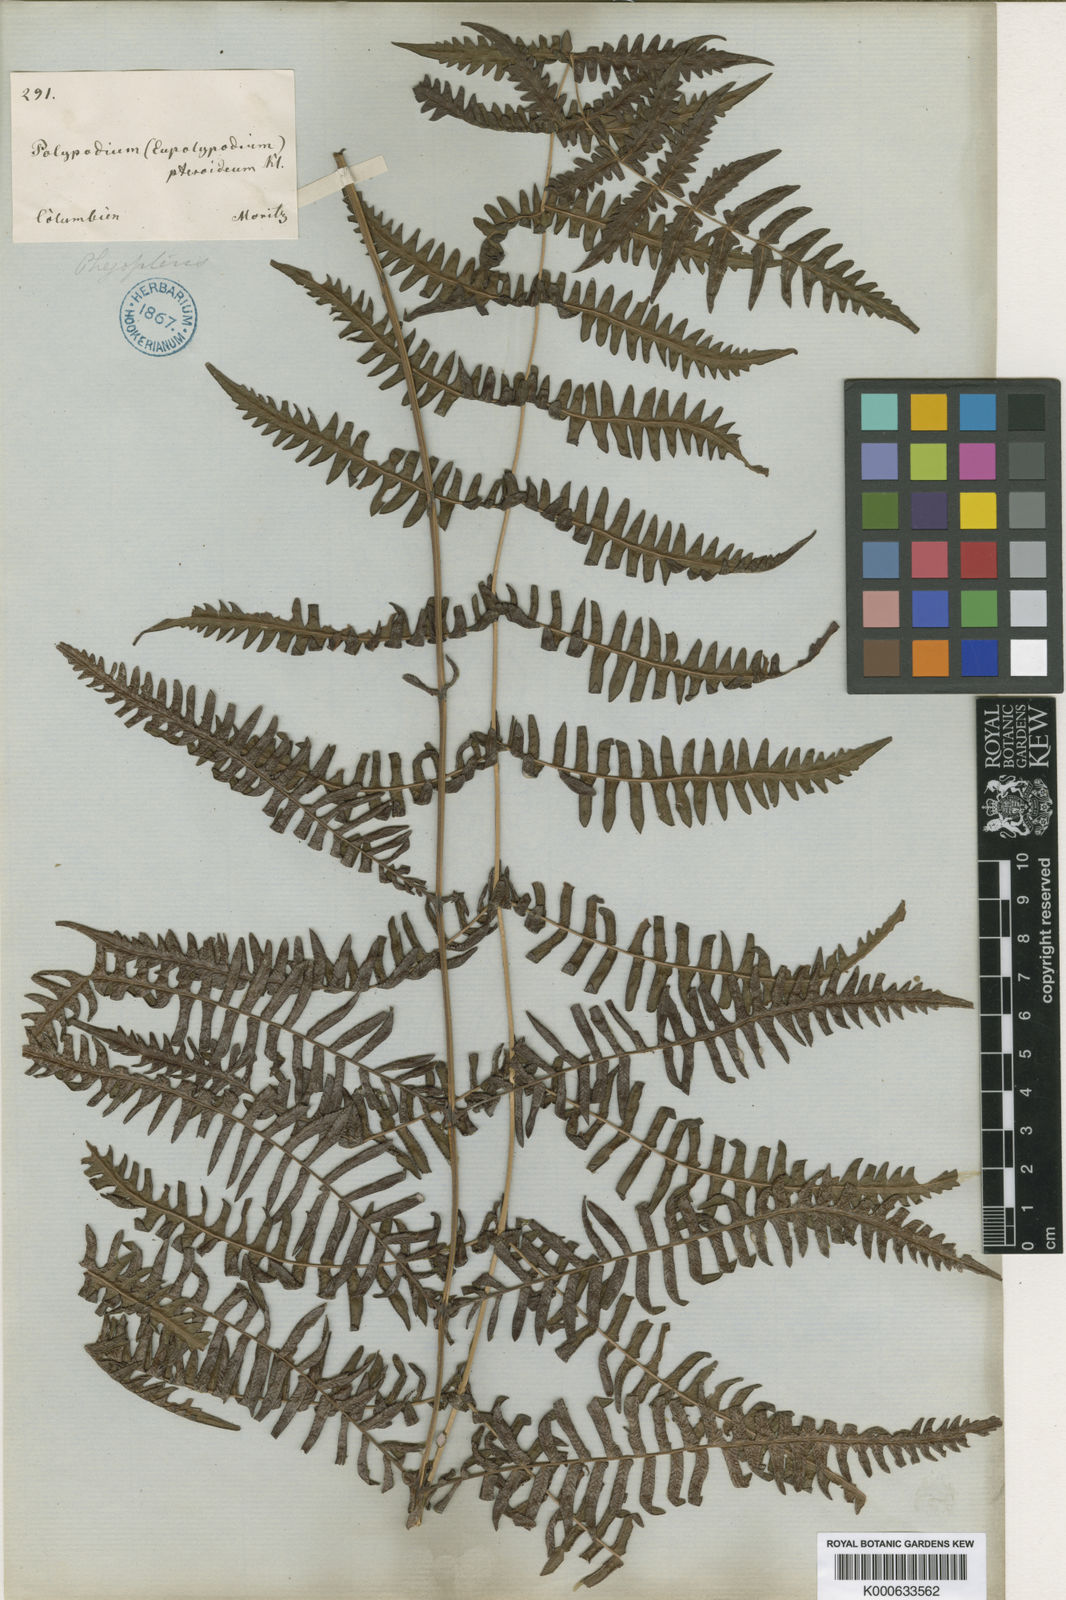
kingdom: Plantae
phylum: Tracheophyta
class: Polypodiopsida
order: Polypodiales
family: Thelypteridaceae
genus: Amauropelta
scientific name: Amauropelta
